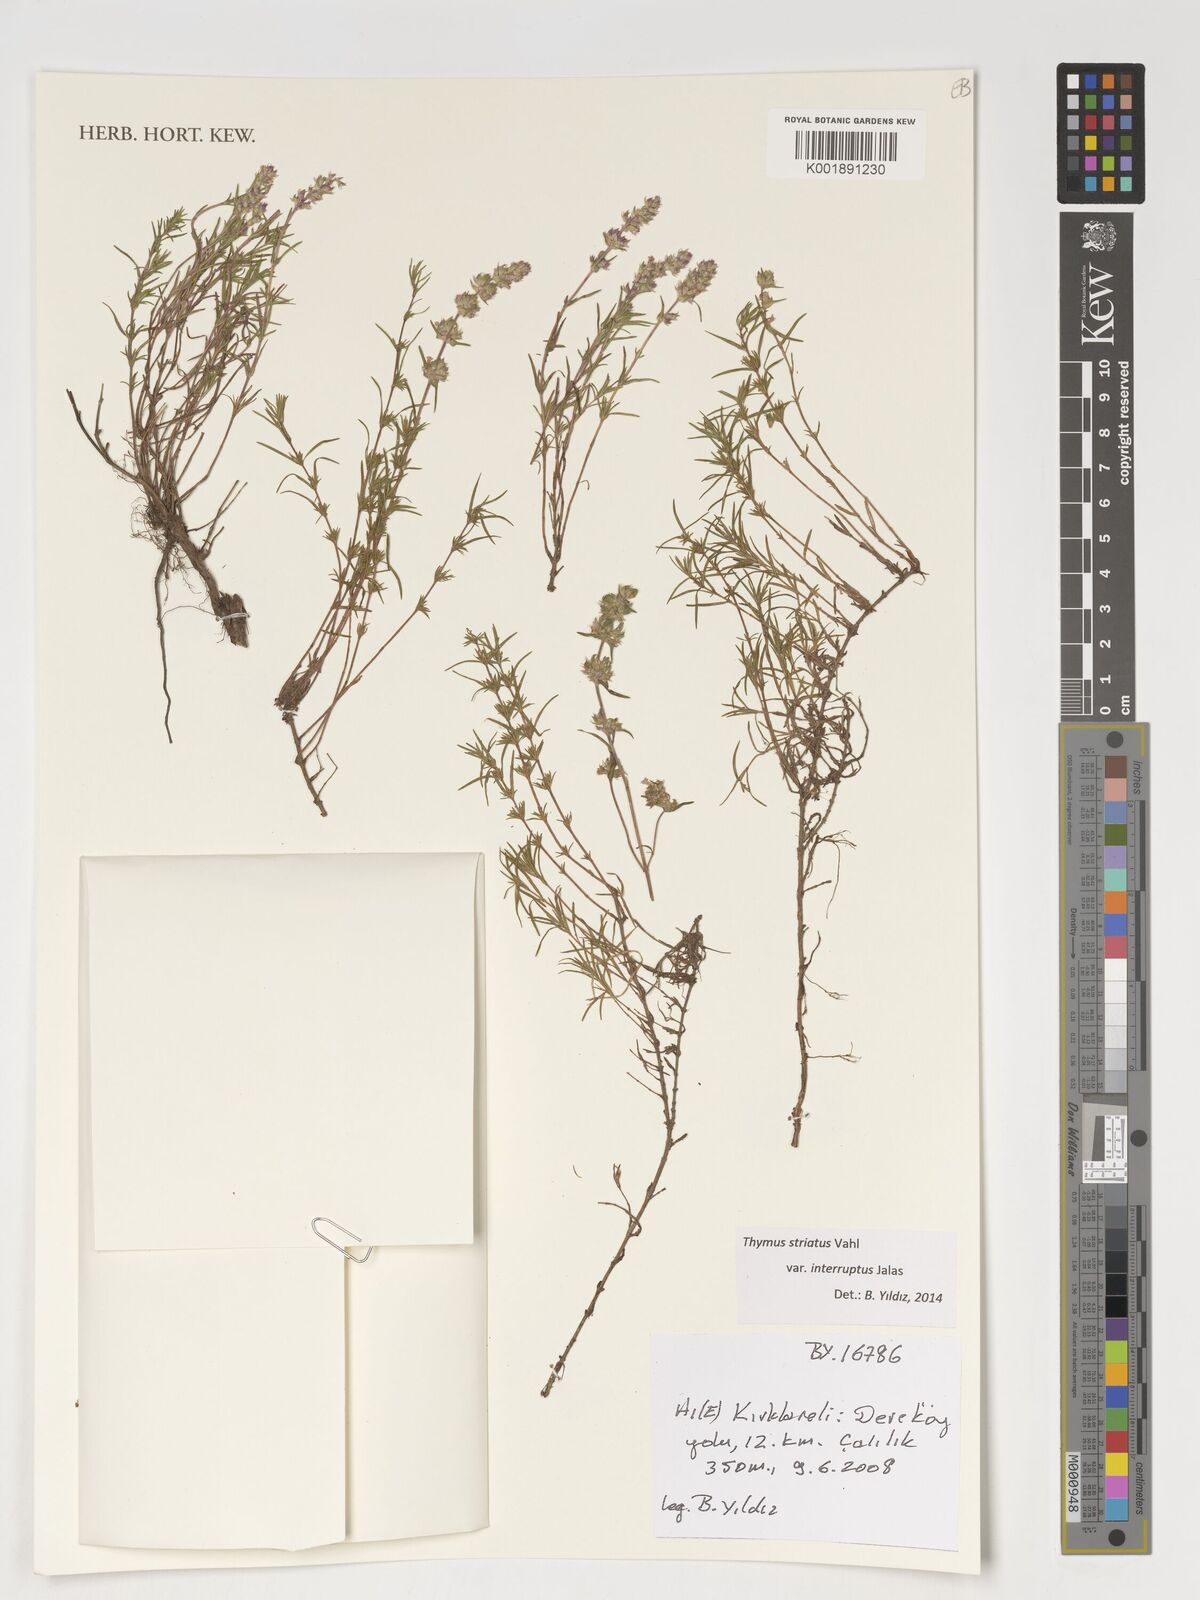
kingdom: Plantae
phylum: Tracheophyta
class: Magnoliopsida
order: Lamiales
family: Lamiaceae
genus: Thymus
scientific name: Thymus striatus
